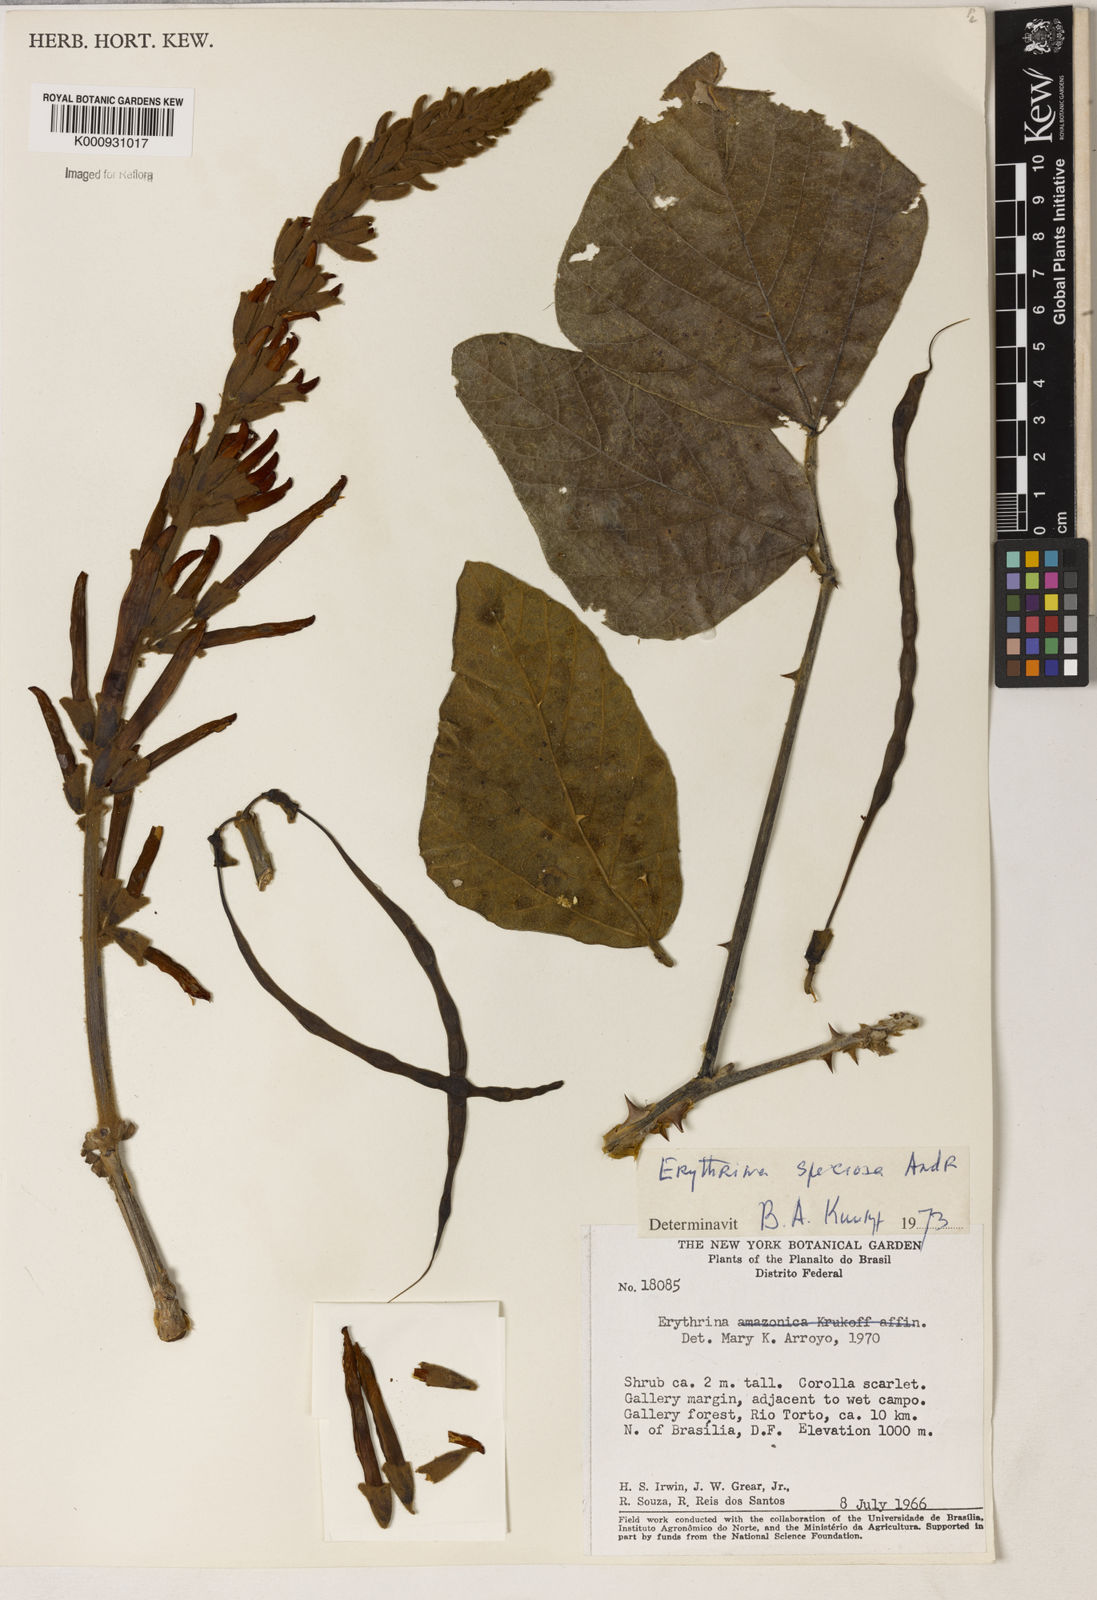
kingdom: Plantae
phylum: Tracheophyta
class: Magnoliopsida
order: Fabales
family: Fabaceae
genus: Erythrina
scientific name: Erythrina speciosa
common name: Coral tree
